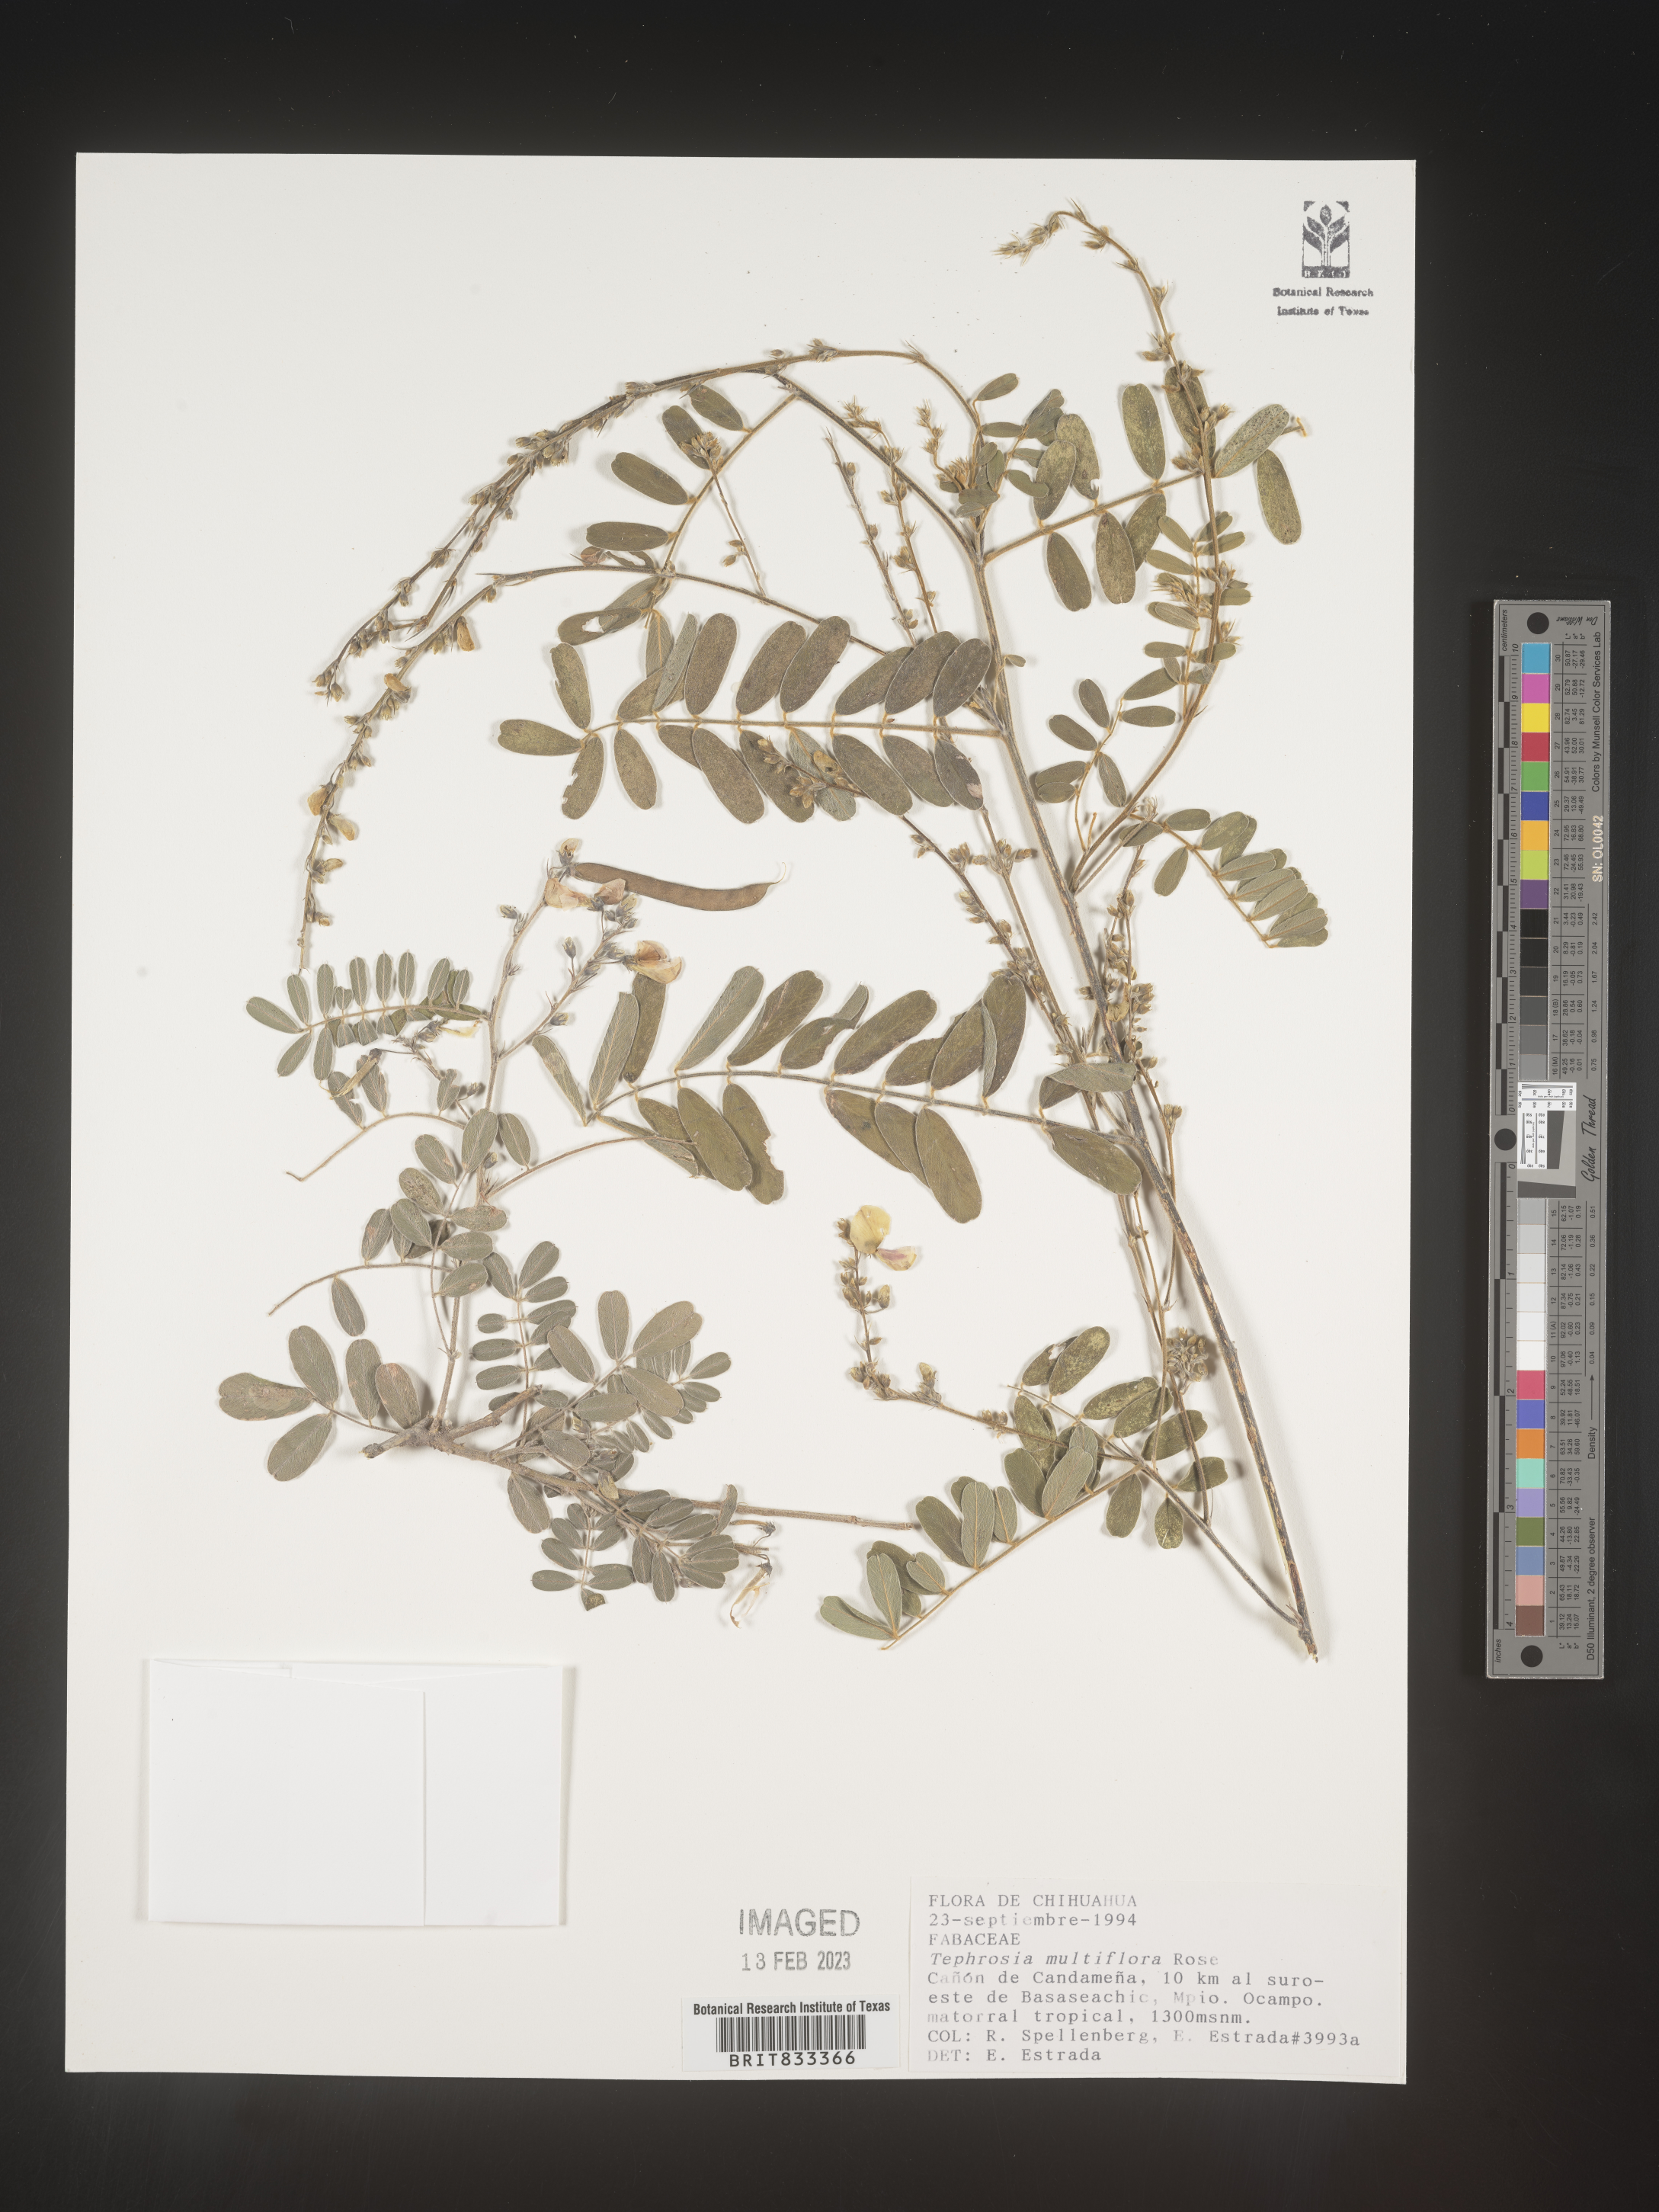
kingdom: Plantae
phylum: Tracheophyta
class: Magnoliopsida
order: Fabales
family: Fabaceae
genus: Tephrosia
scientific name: Tephrosia
